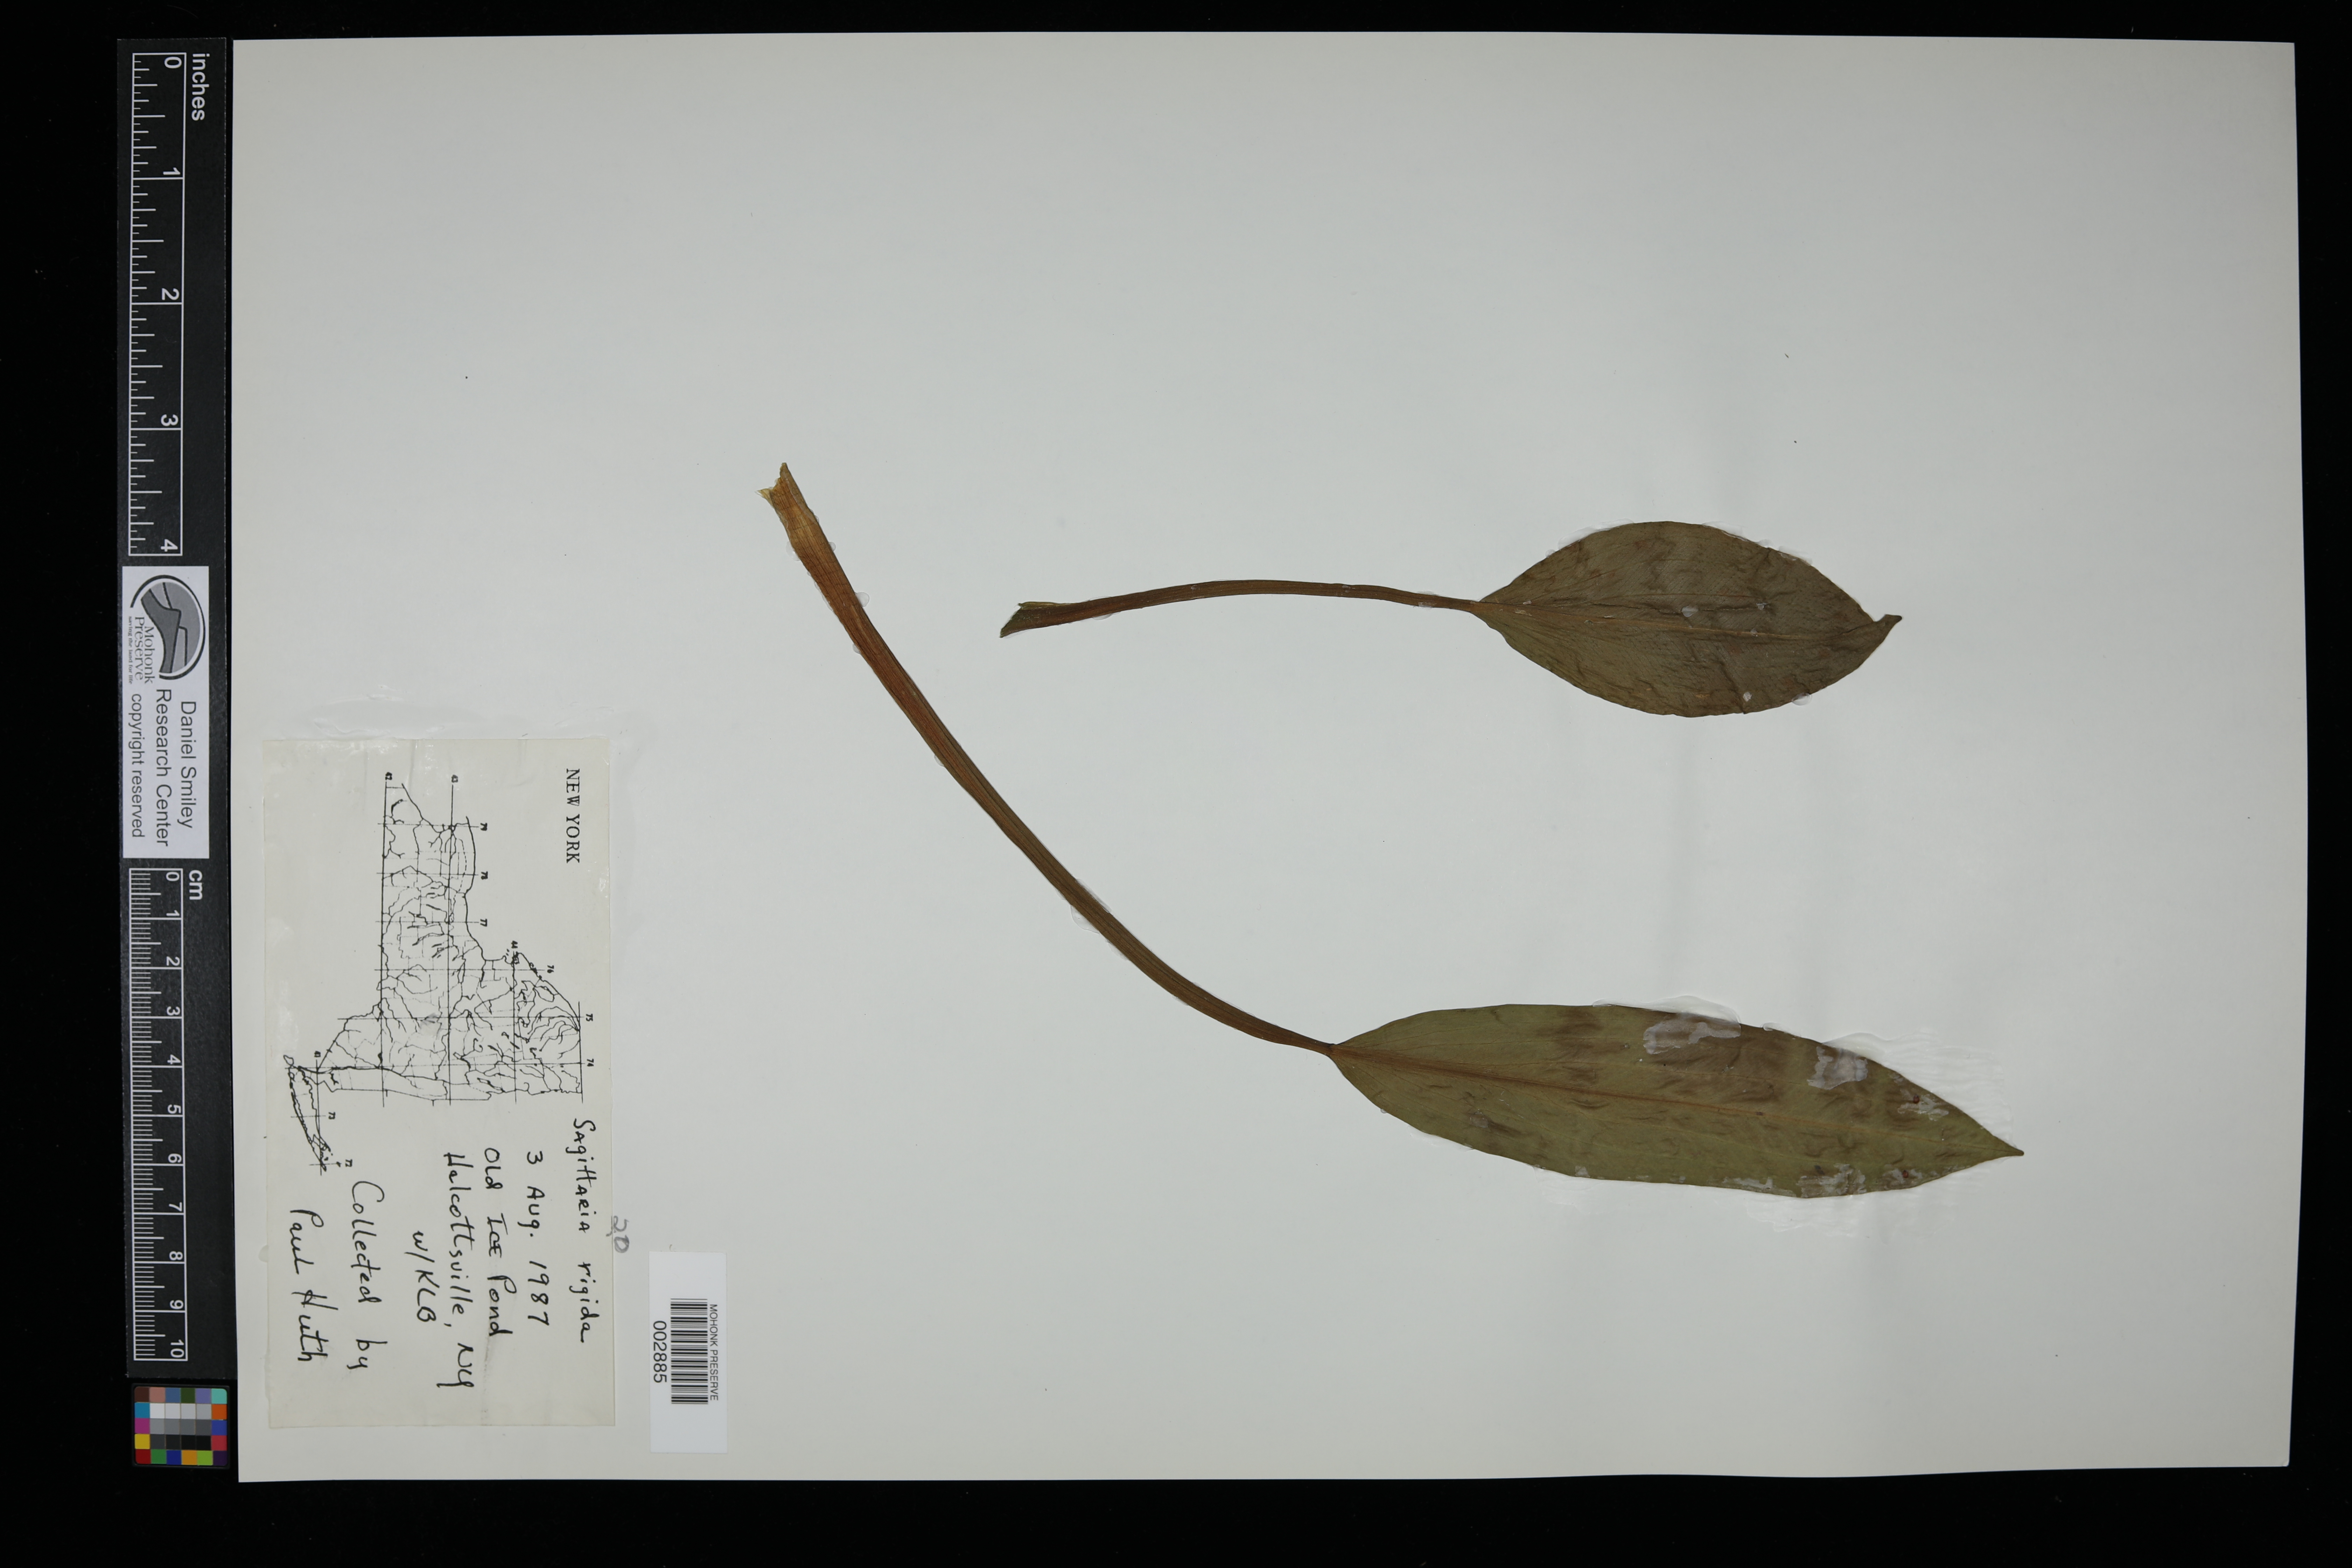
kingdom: Plantae
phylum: Tracheophyta
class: Liliopsida
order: Alismatales
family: Alismataceae
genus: Sagittaria
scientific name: Sagittaria rigida
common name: Canadian arrowhead
